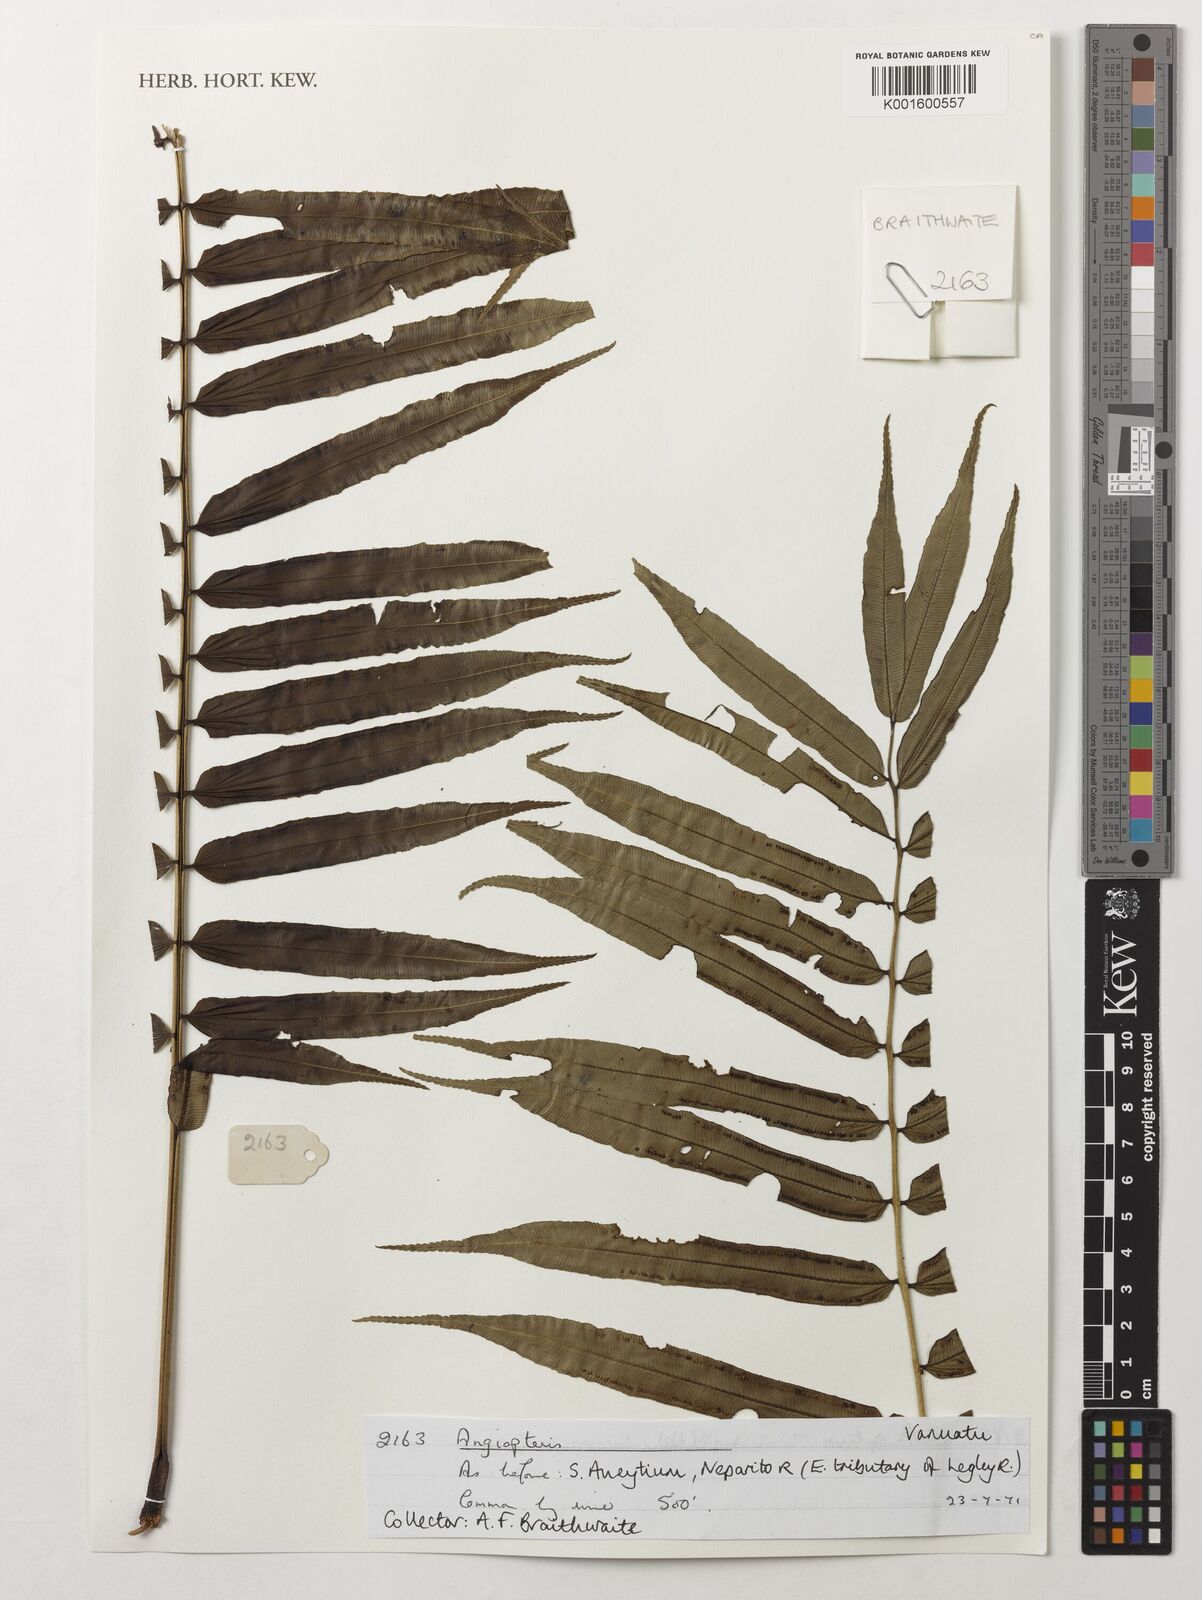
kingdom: Plantae
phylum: Tracheophyta
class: Polypodiopsida
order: Marattiales
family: Marattiaceae
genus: Angiopteris
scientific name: Angiopteris
